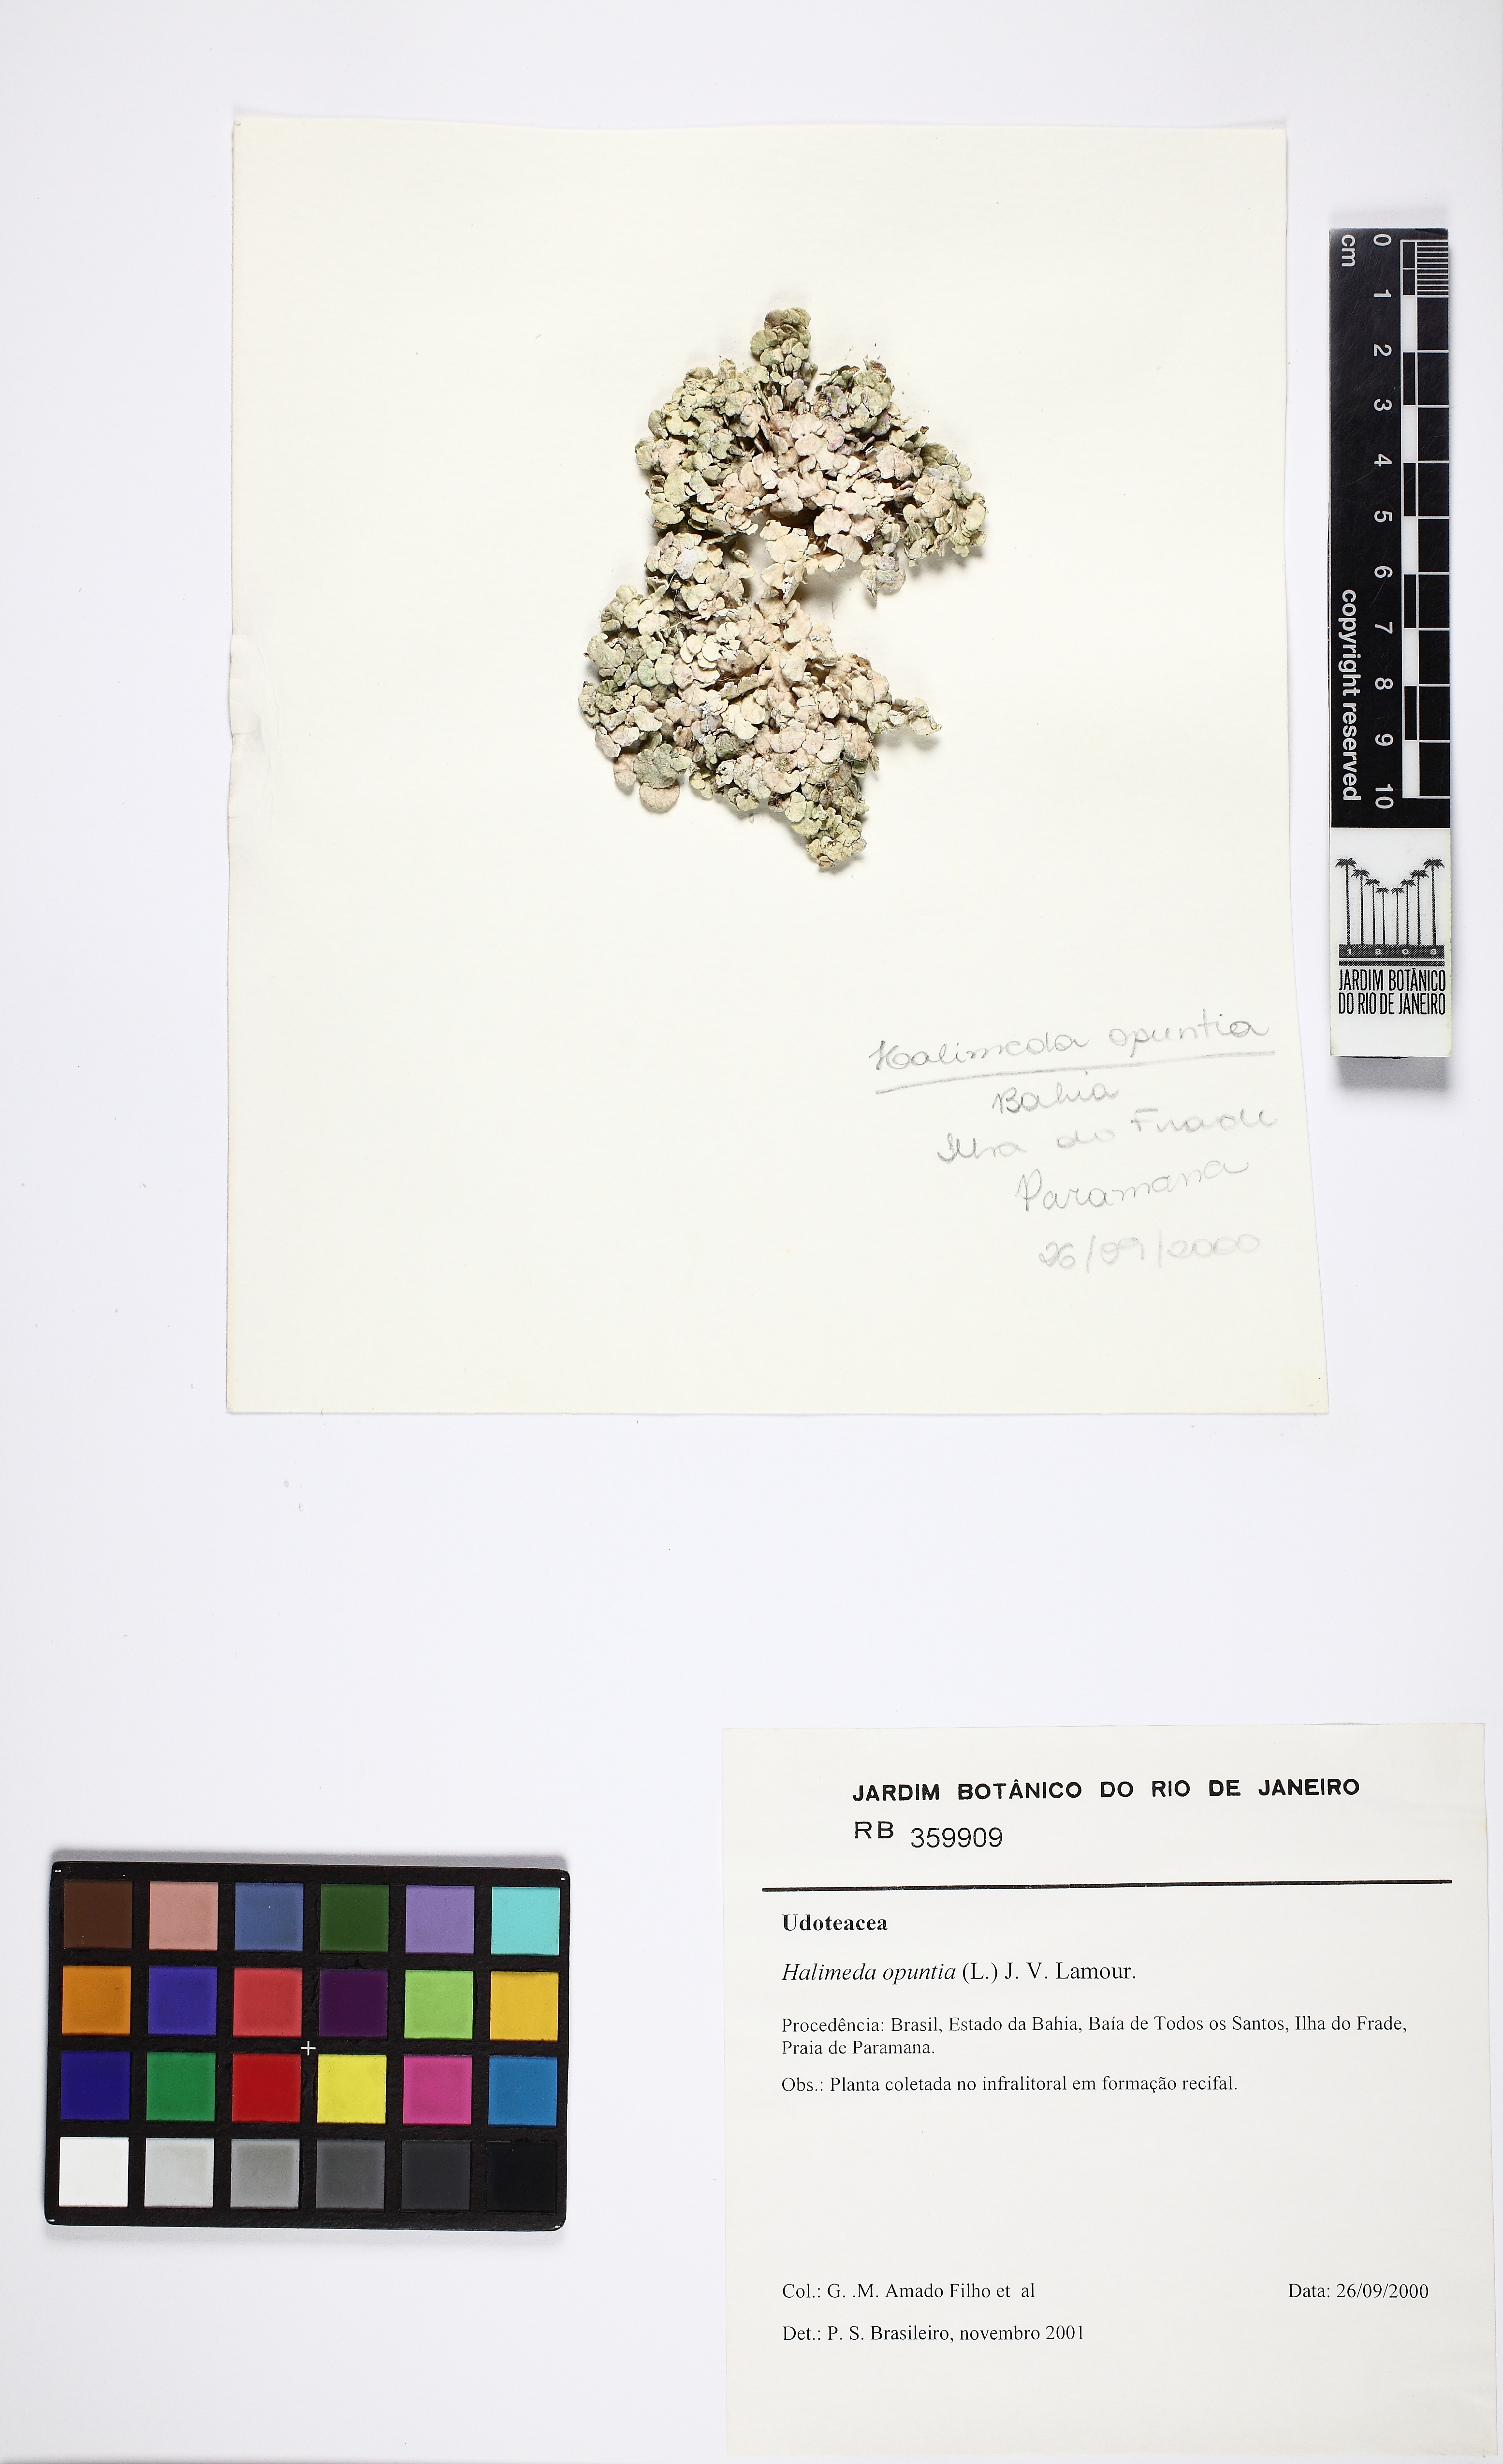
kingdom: Plantae
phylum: Chlorophyta
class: Ulvophyceae
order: Bryopsidales
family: Halimedaceae
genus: Halimeda
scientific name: Halimeda opuntia
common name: Watercress algae
